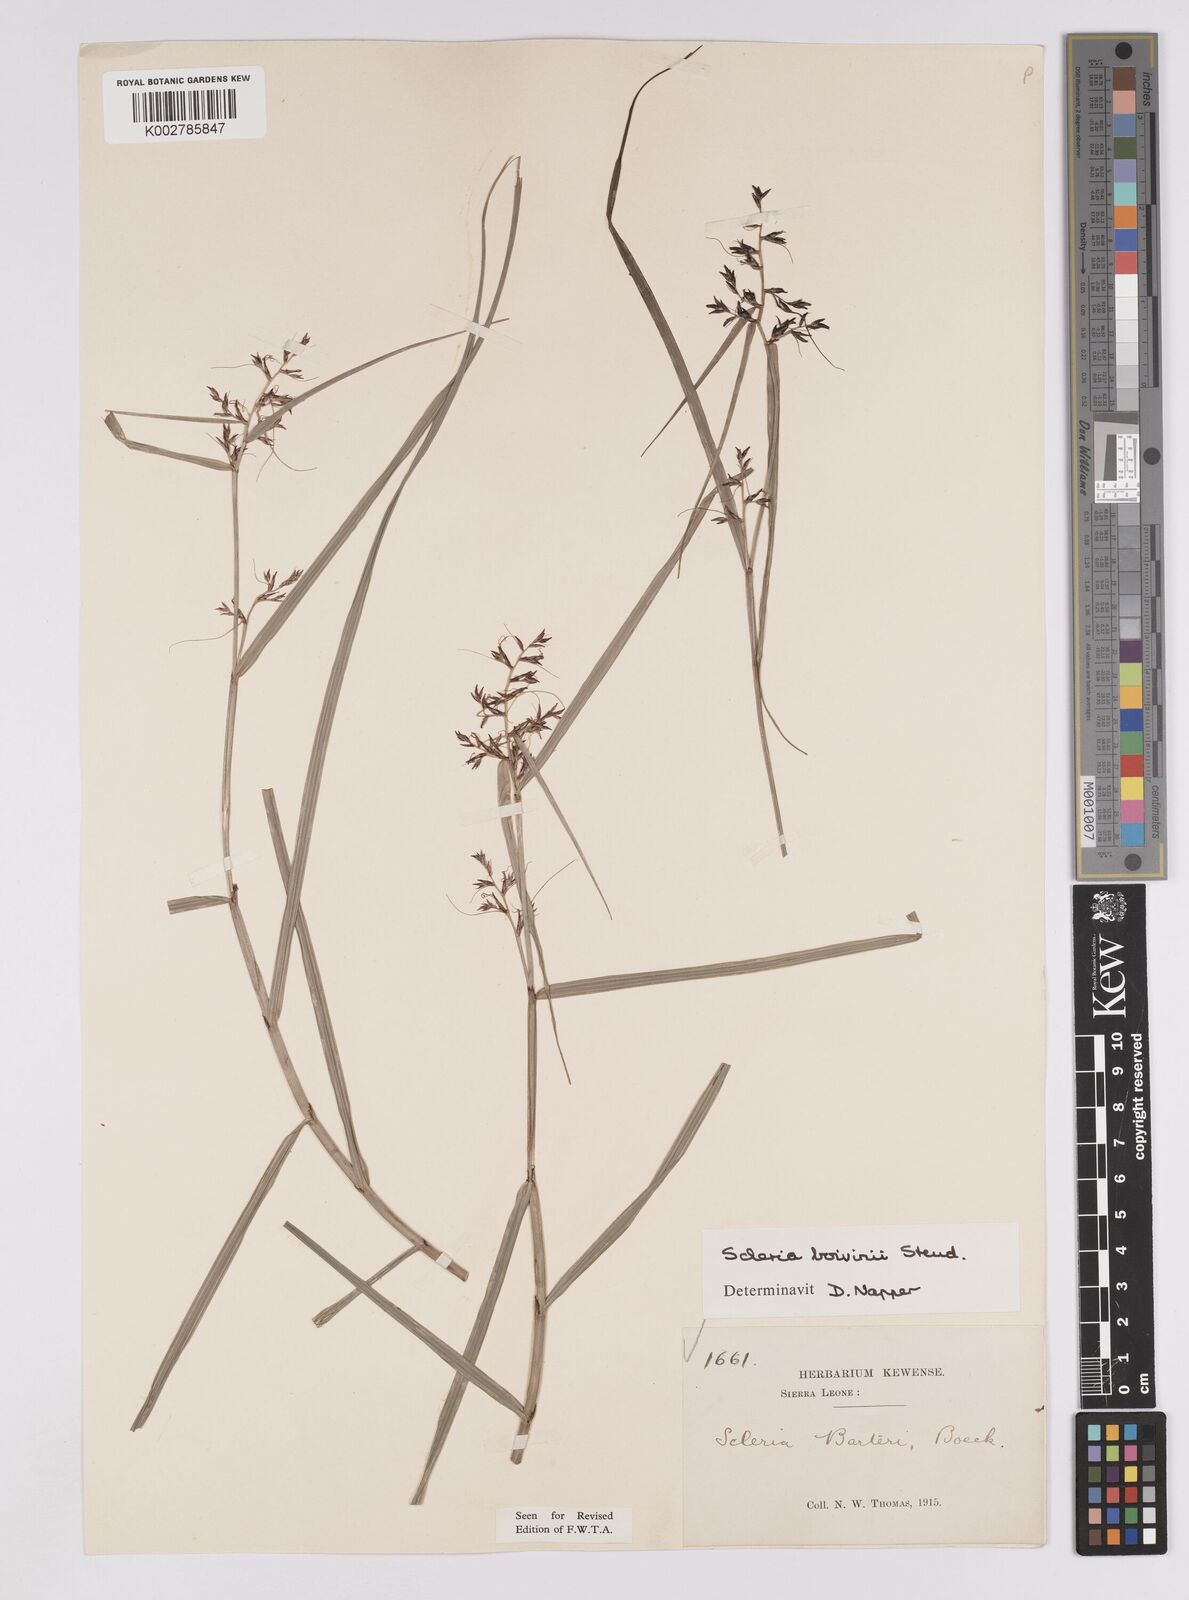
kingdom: Plantae
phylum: Tracheophyta
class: Liliopsida
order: Poales
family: Cyperaceae
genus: Scleria
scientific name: Scleria boivinii
